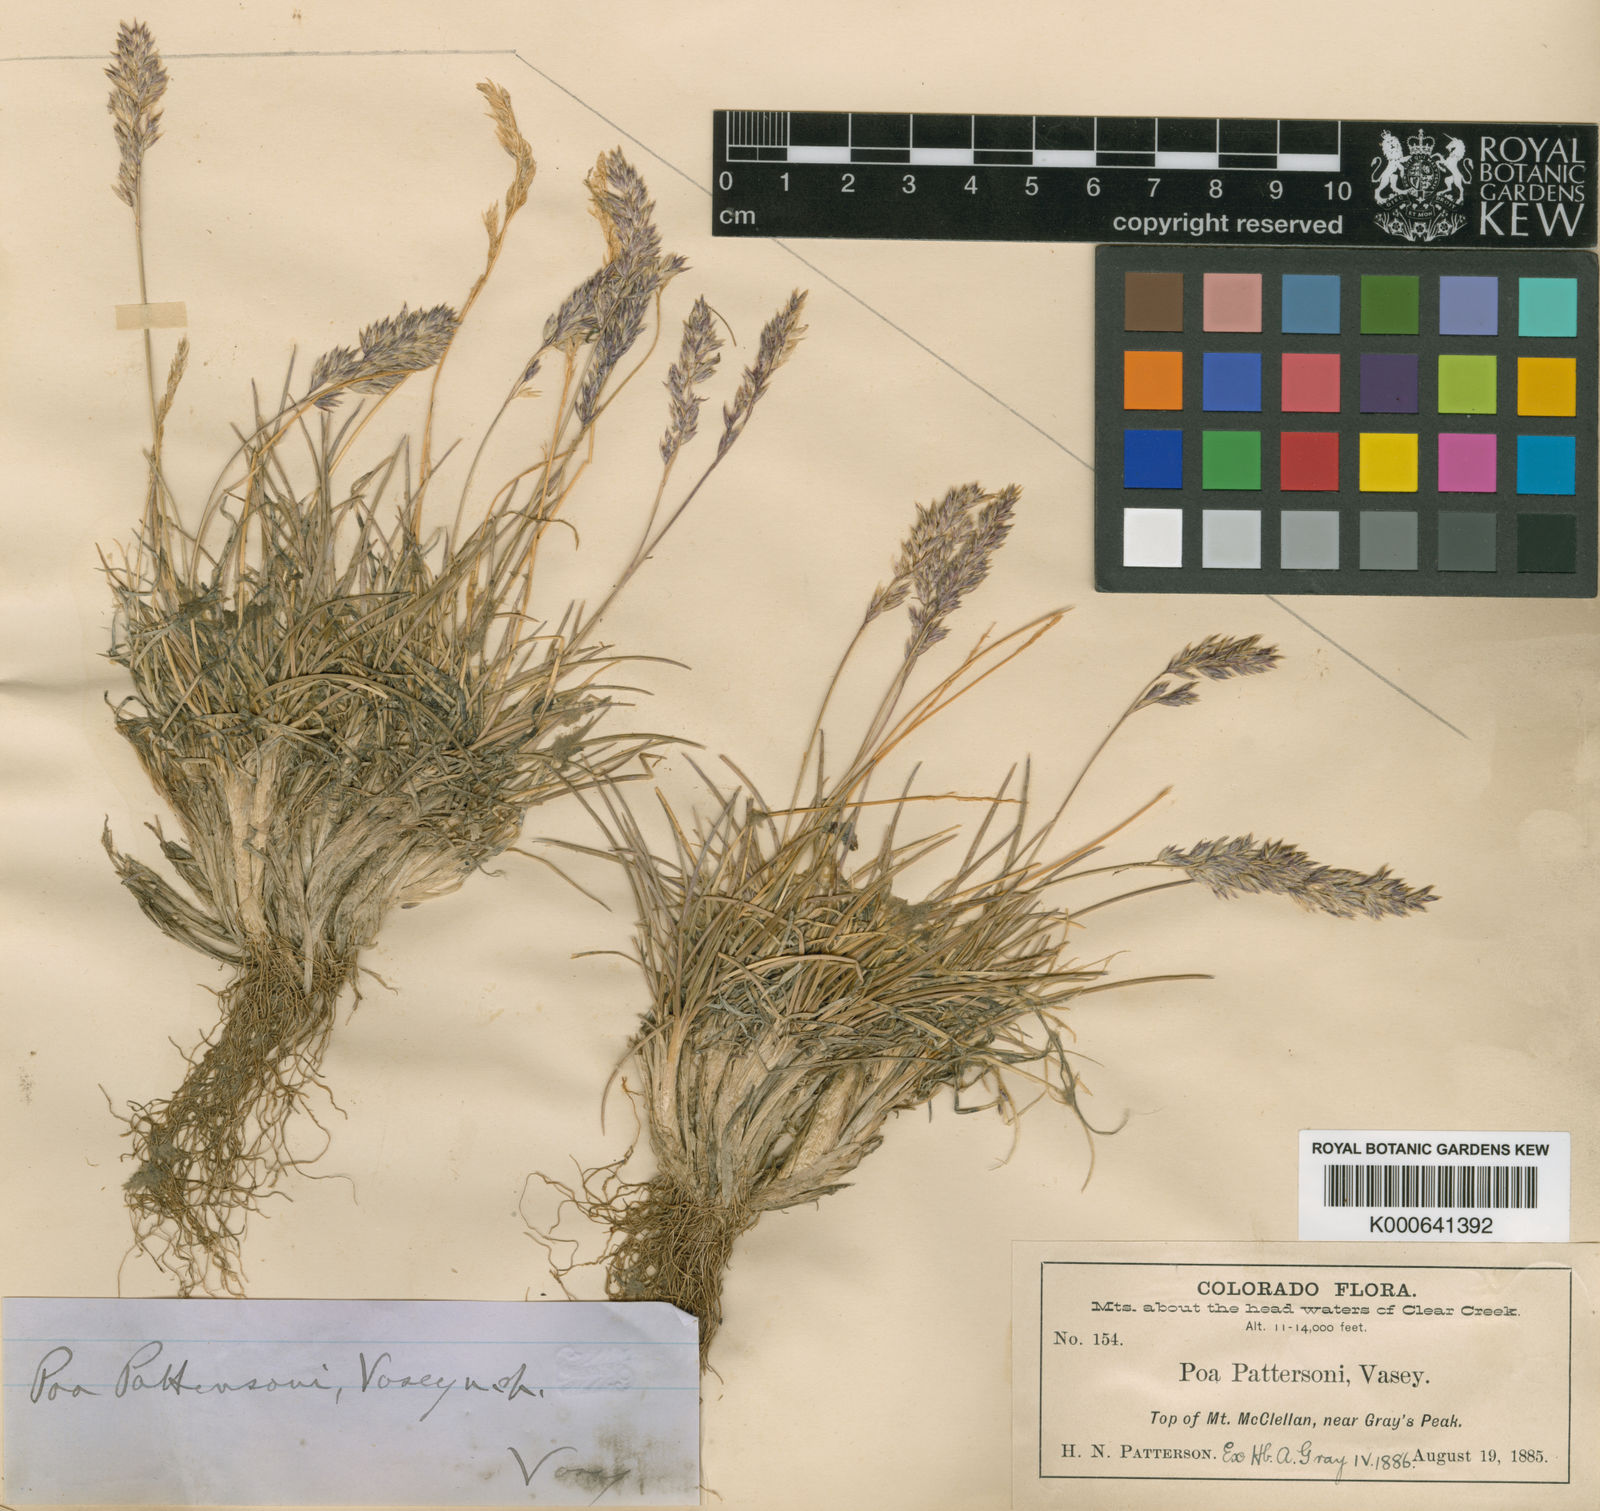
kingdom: Plantae
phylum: Tracheophyta
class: Liliopsida
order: Poales
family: Poaceae
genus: Poa
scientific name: Poa pattersonii
